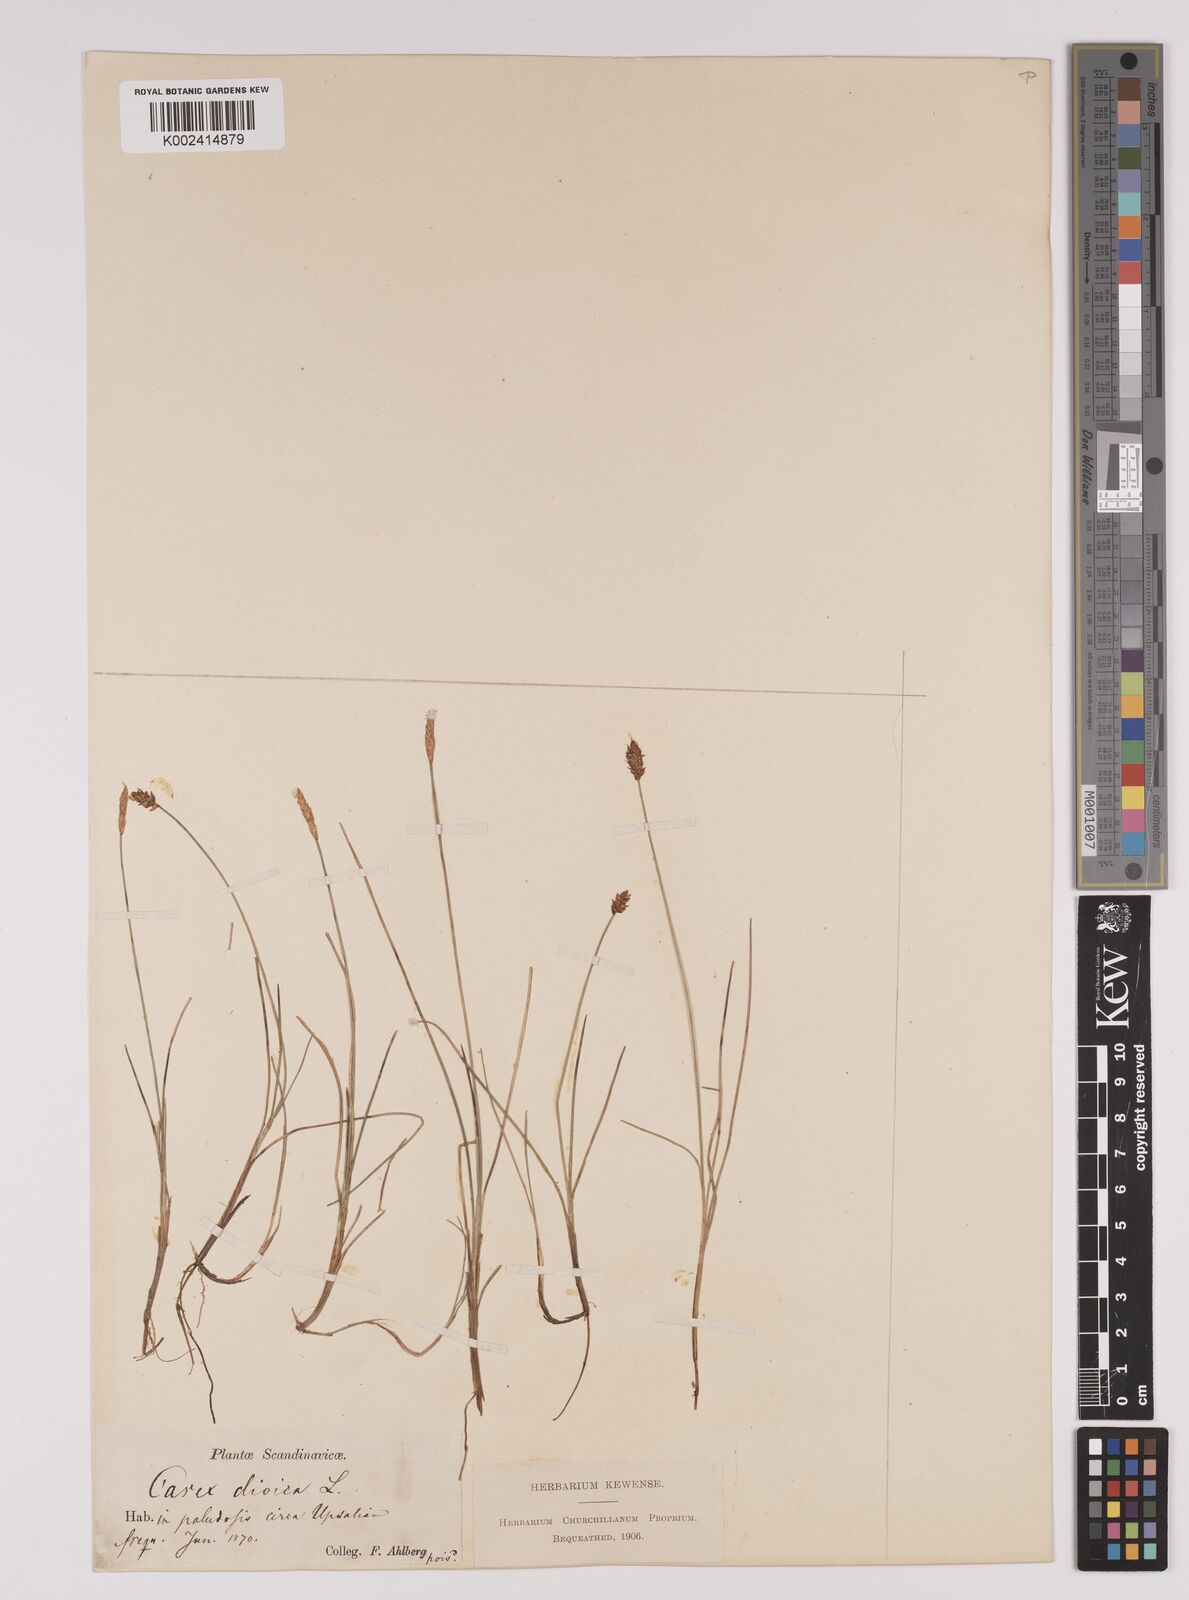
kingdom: Plantae
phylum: Tracheophyta
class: Liliopsida
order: Poales
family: Cyperaceae
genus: Carex
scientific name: Carex dioica
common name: Dioecious sedge
